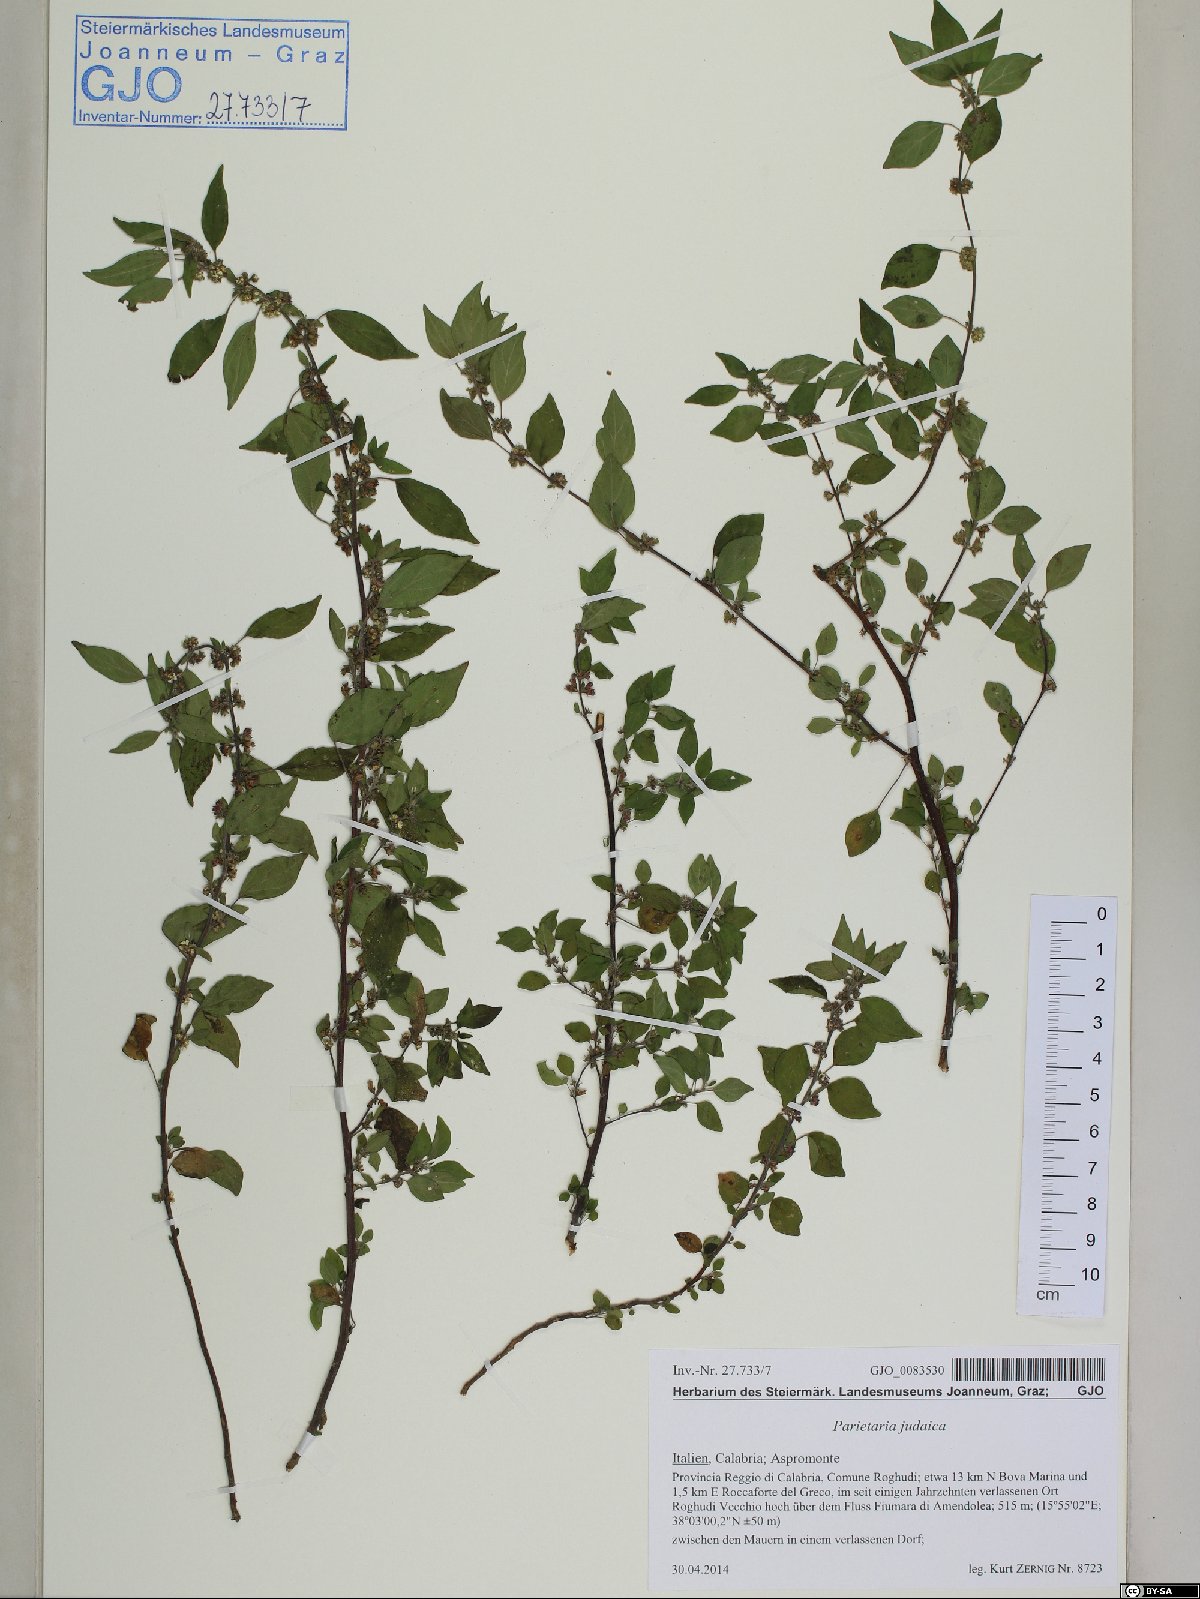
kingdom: Plantae
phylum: Tracheophyta
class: Magnoliopsida
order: Rosales
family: Urticaceae
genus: Parietaria
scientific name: Parietaria judaica
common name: Pellitory-of-the-wall
